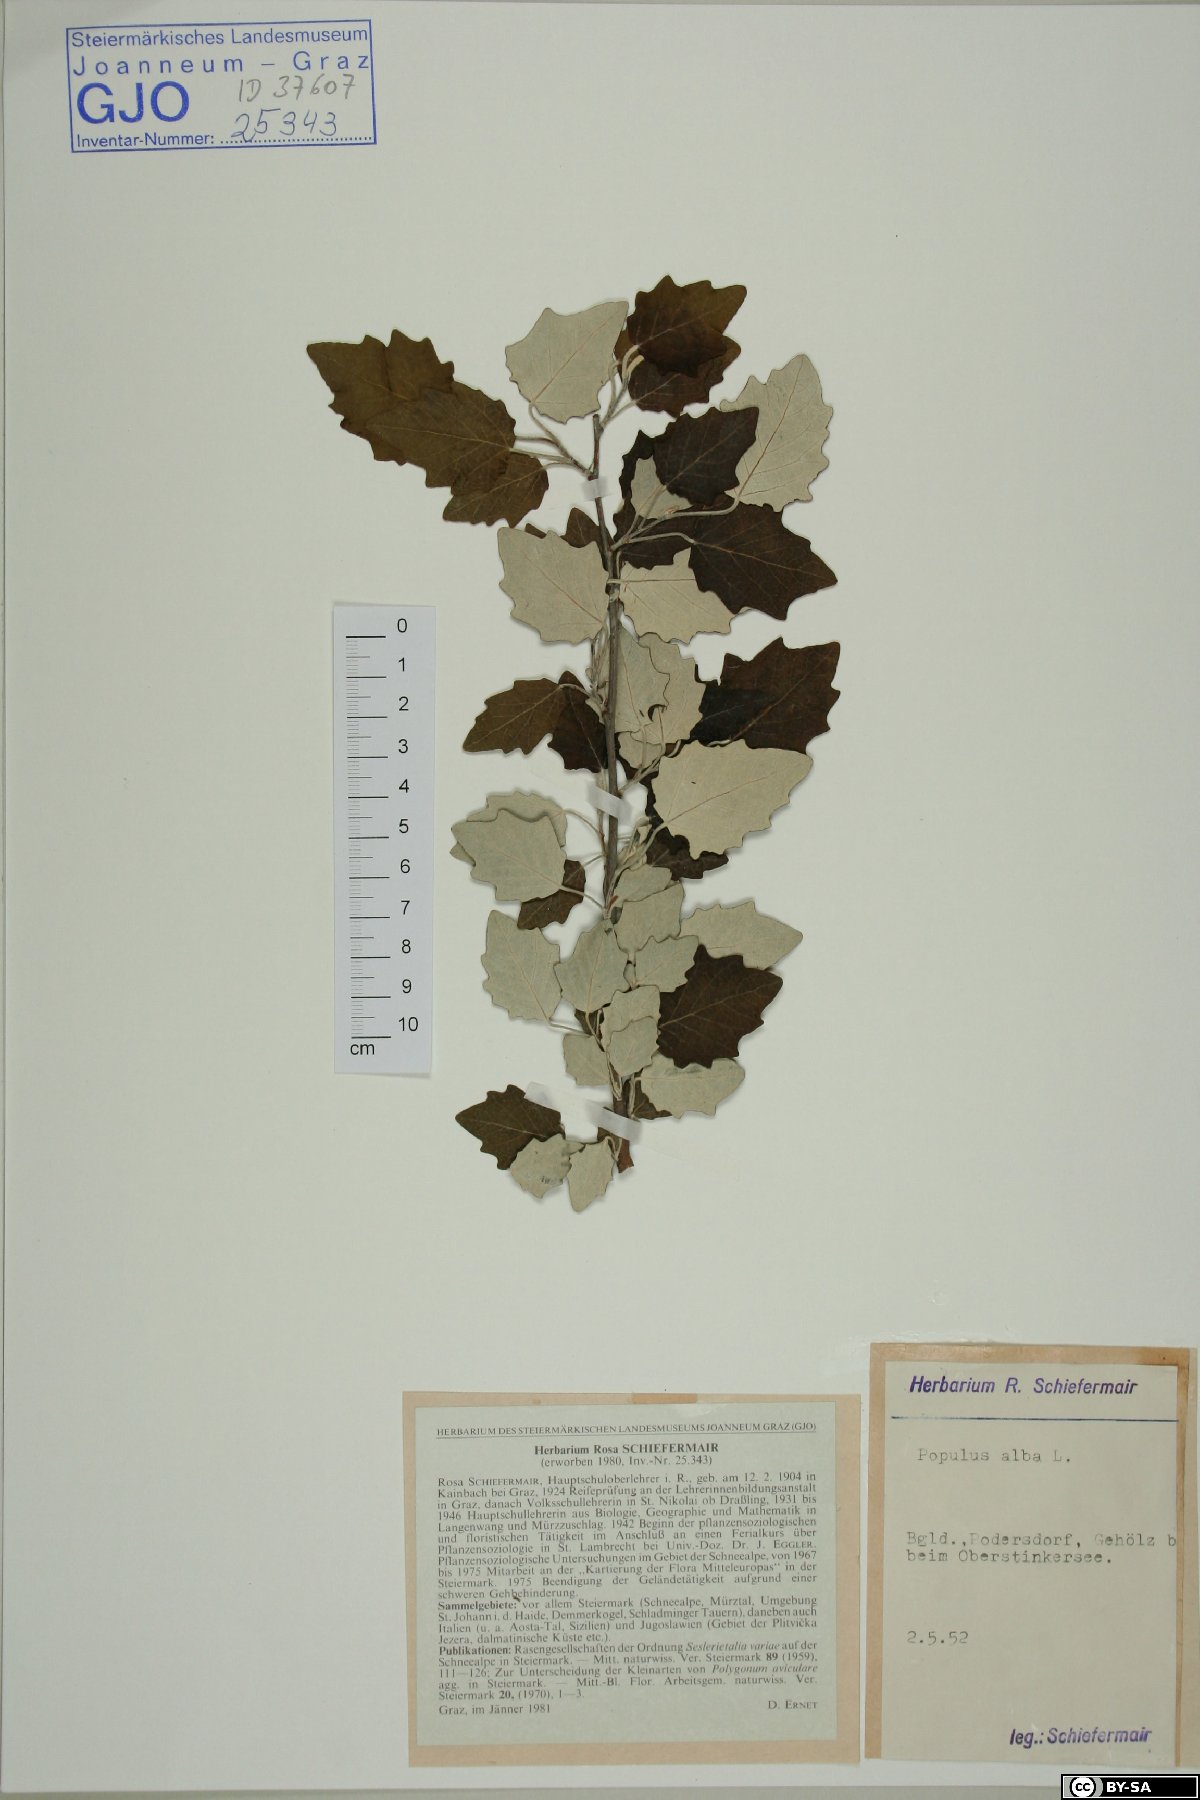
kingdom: Plantae
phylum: Tracheophyta
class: Magnoliopsida
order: Malpighiales
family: Salicaceae
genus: Populus
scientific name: Populus alba
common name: White poplar
